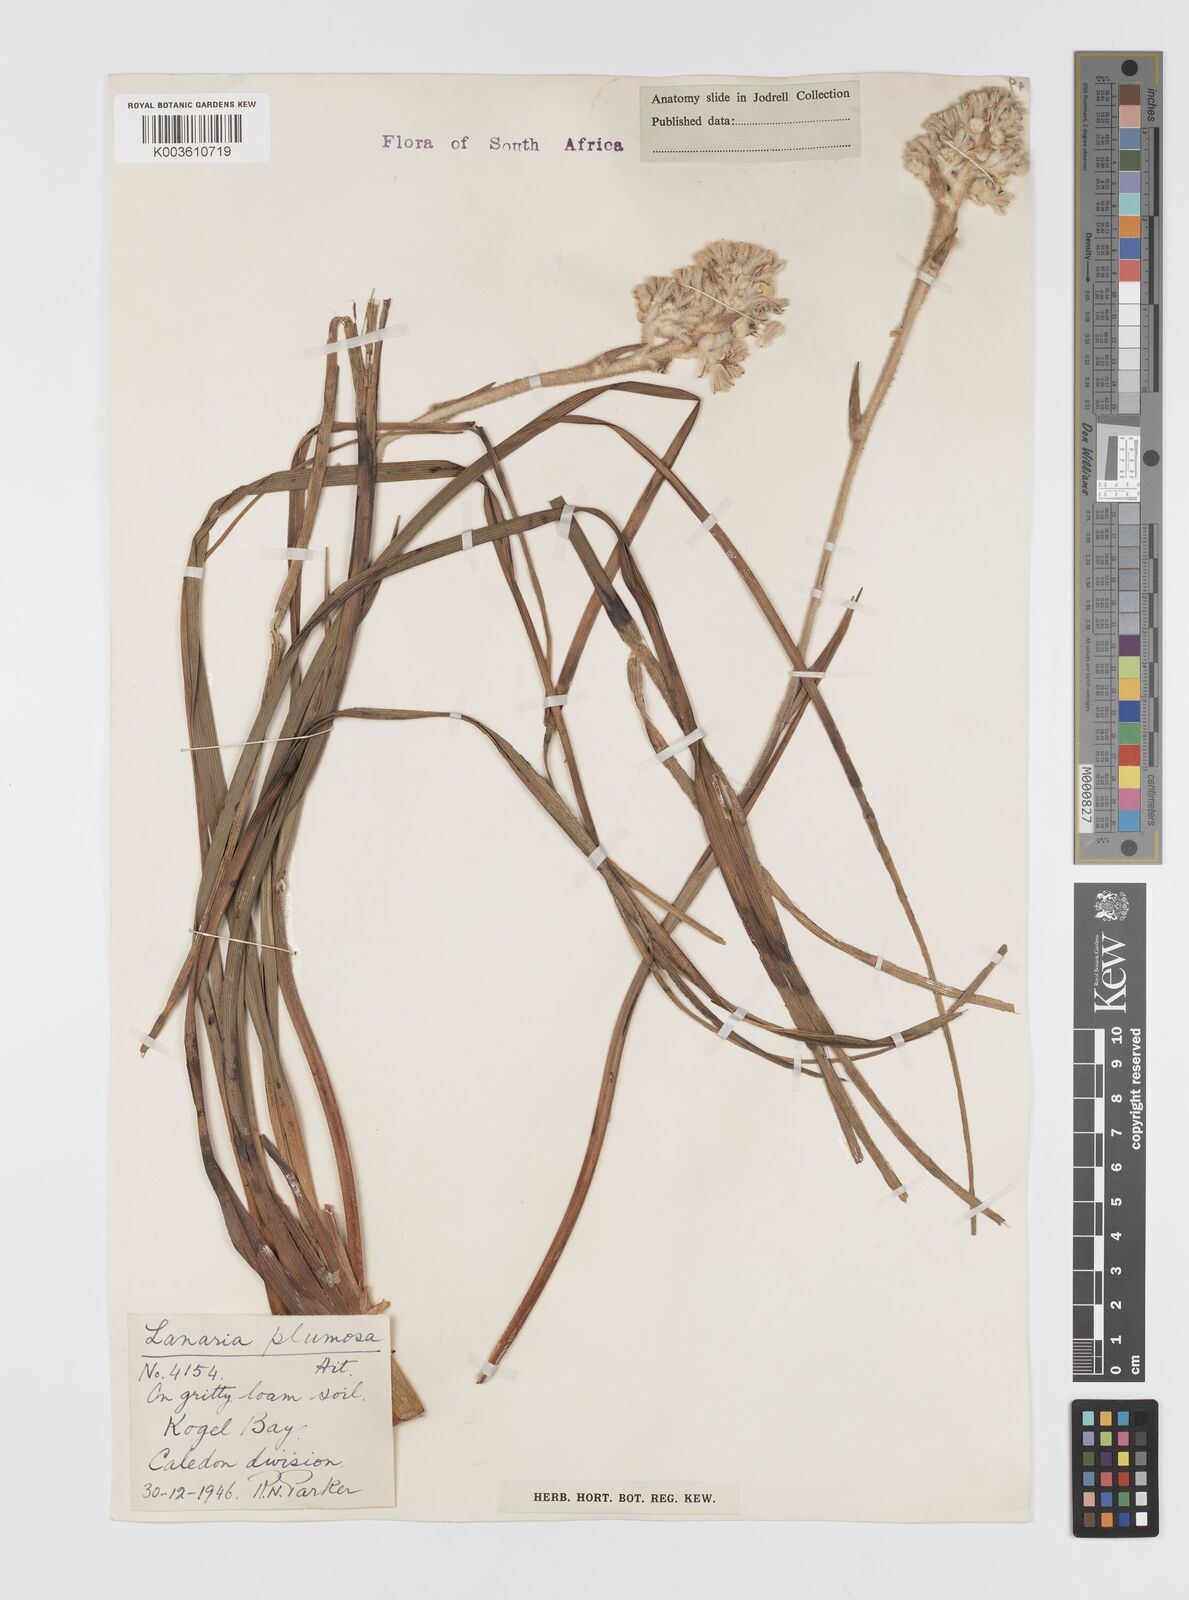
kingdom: Plantae
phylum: Tracheophyta
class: Liliopsida
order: Asparagales
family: Lanariaceae
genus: Lanaria
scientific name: Lanaria lanata
